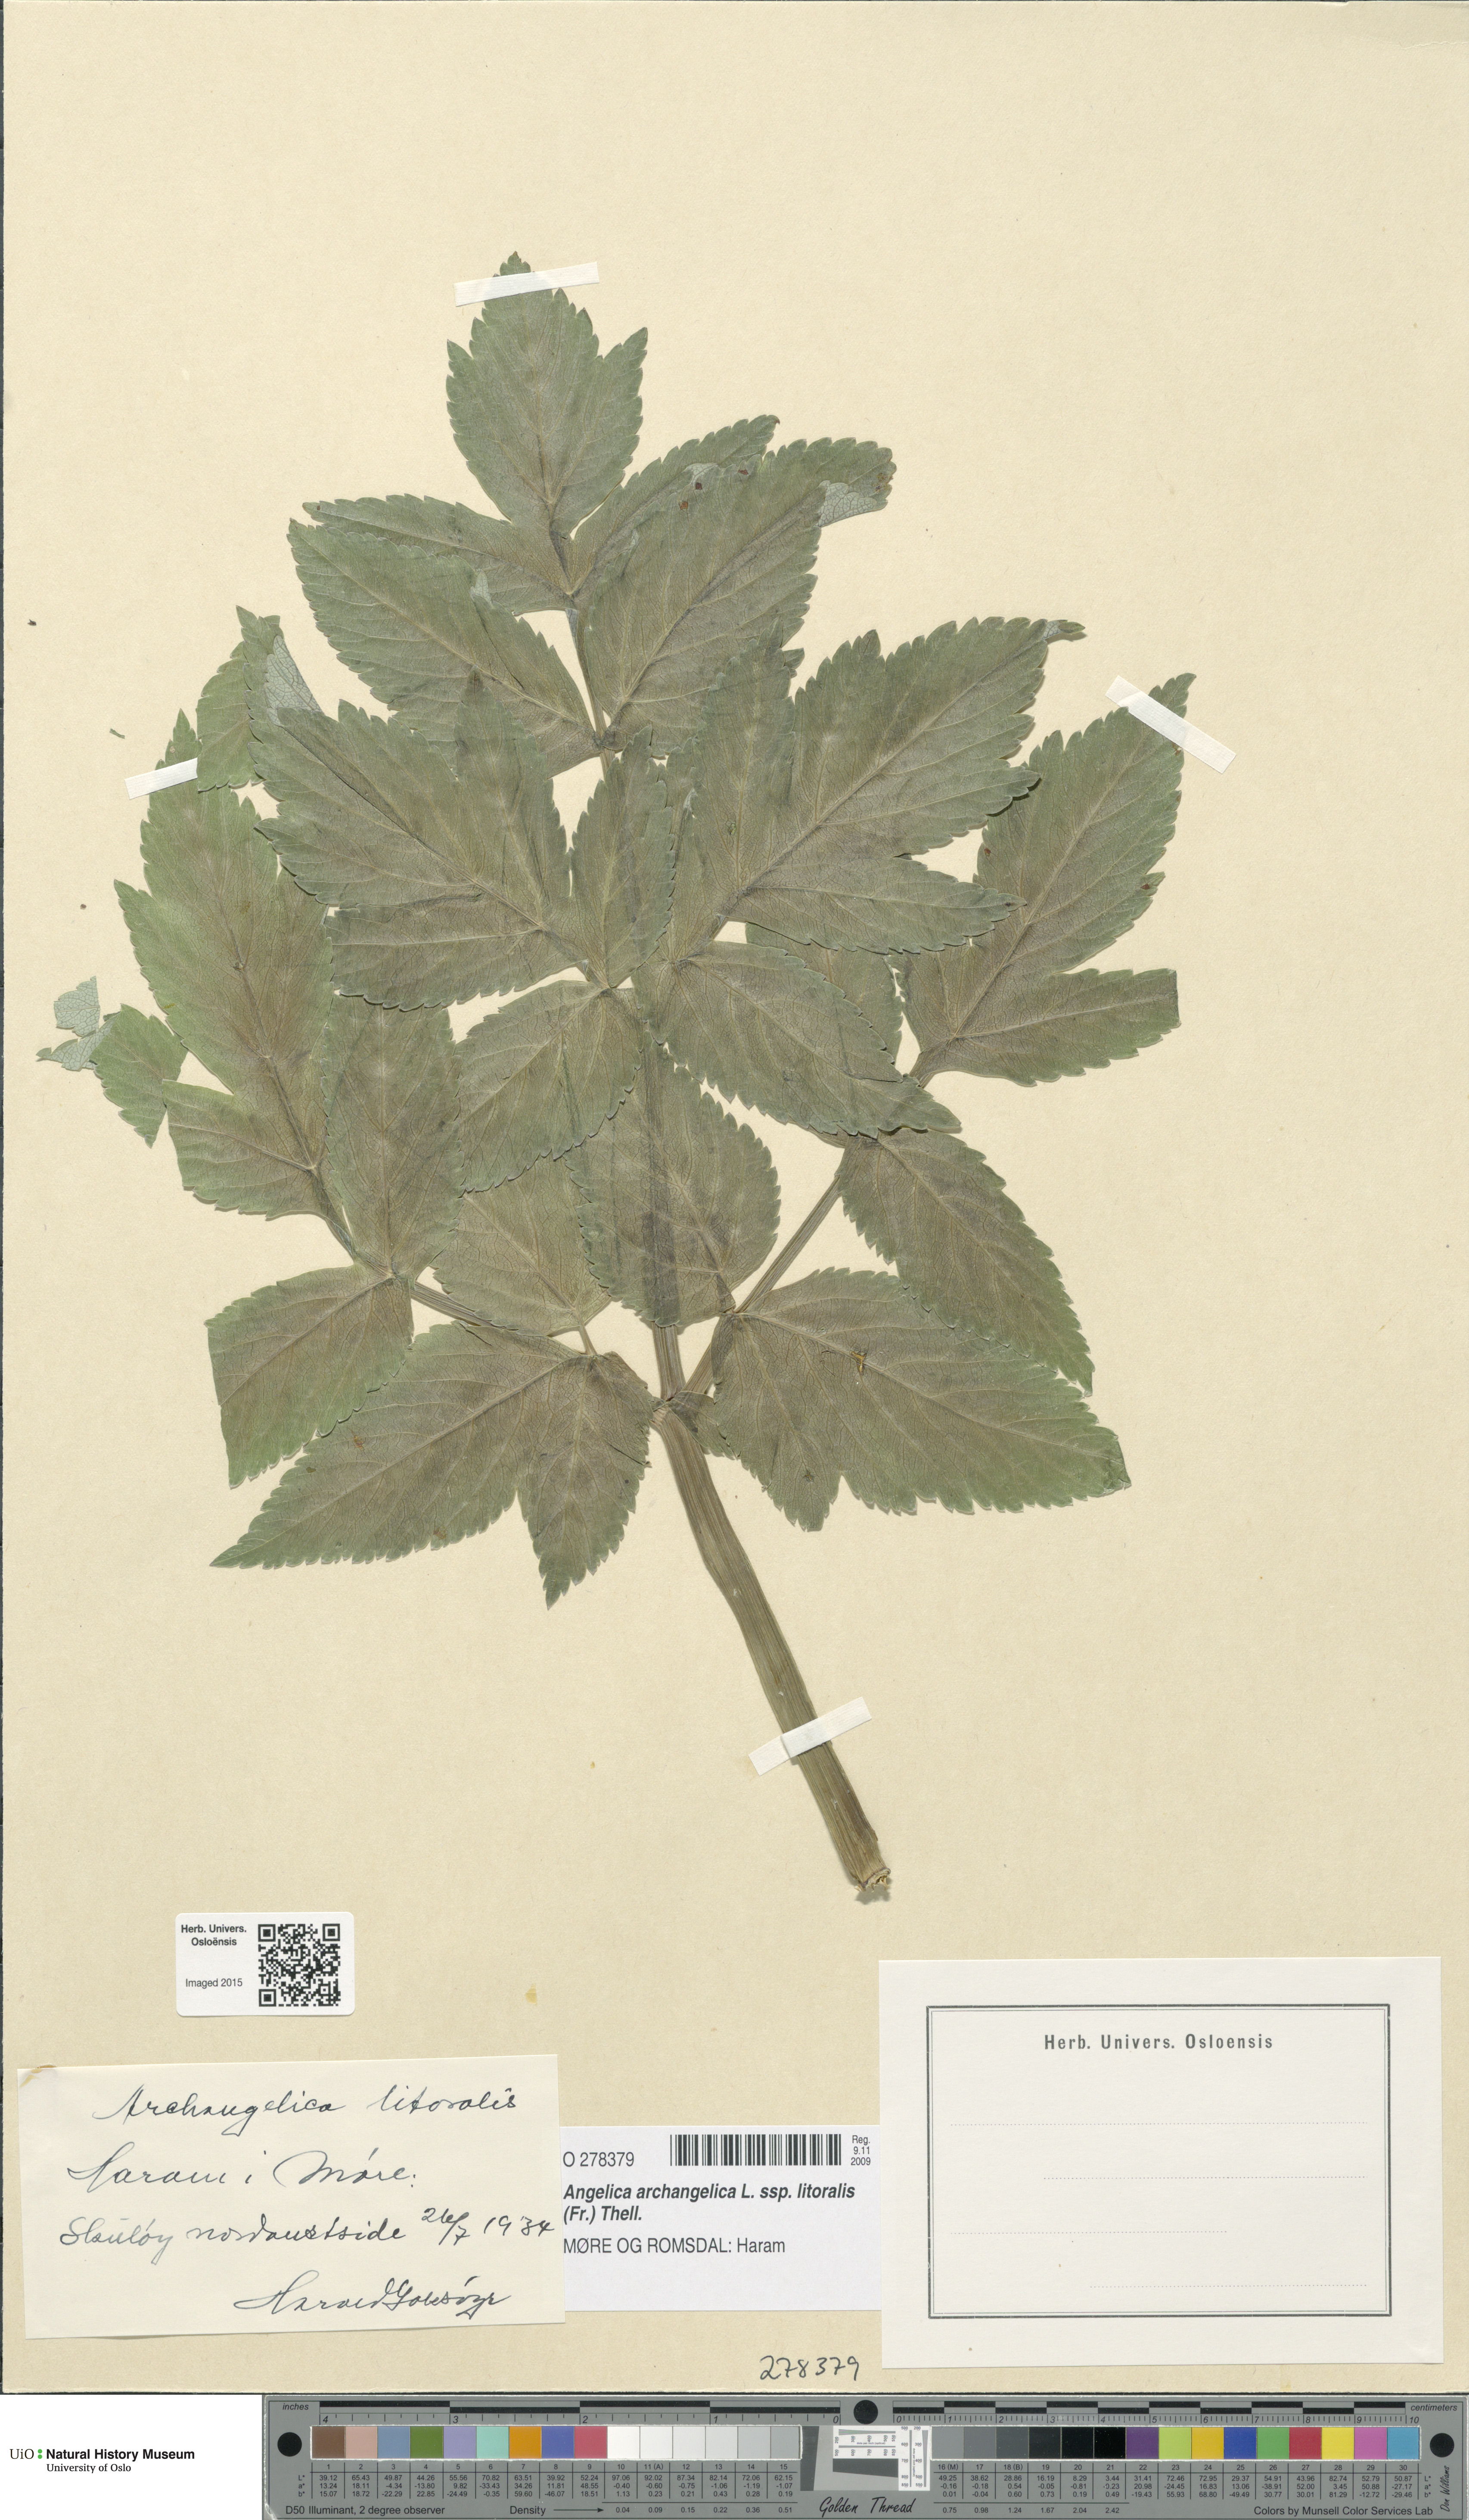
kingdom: Plantae
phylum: Tracheophyta
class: Magnoliopsida
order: Apiales
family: Apiaceae
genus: Angelica
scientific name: Angelica archangelica
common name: Garden angelica
